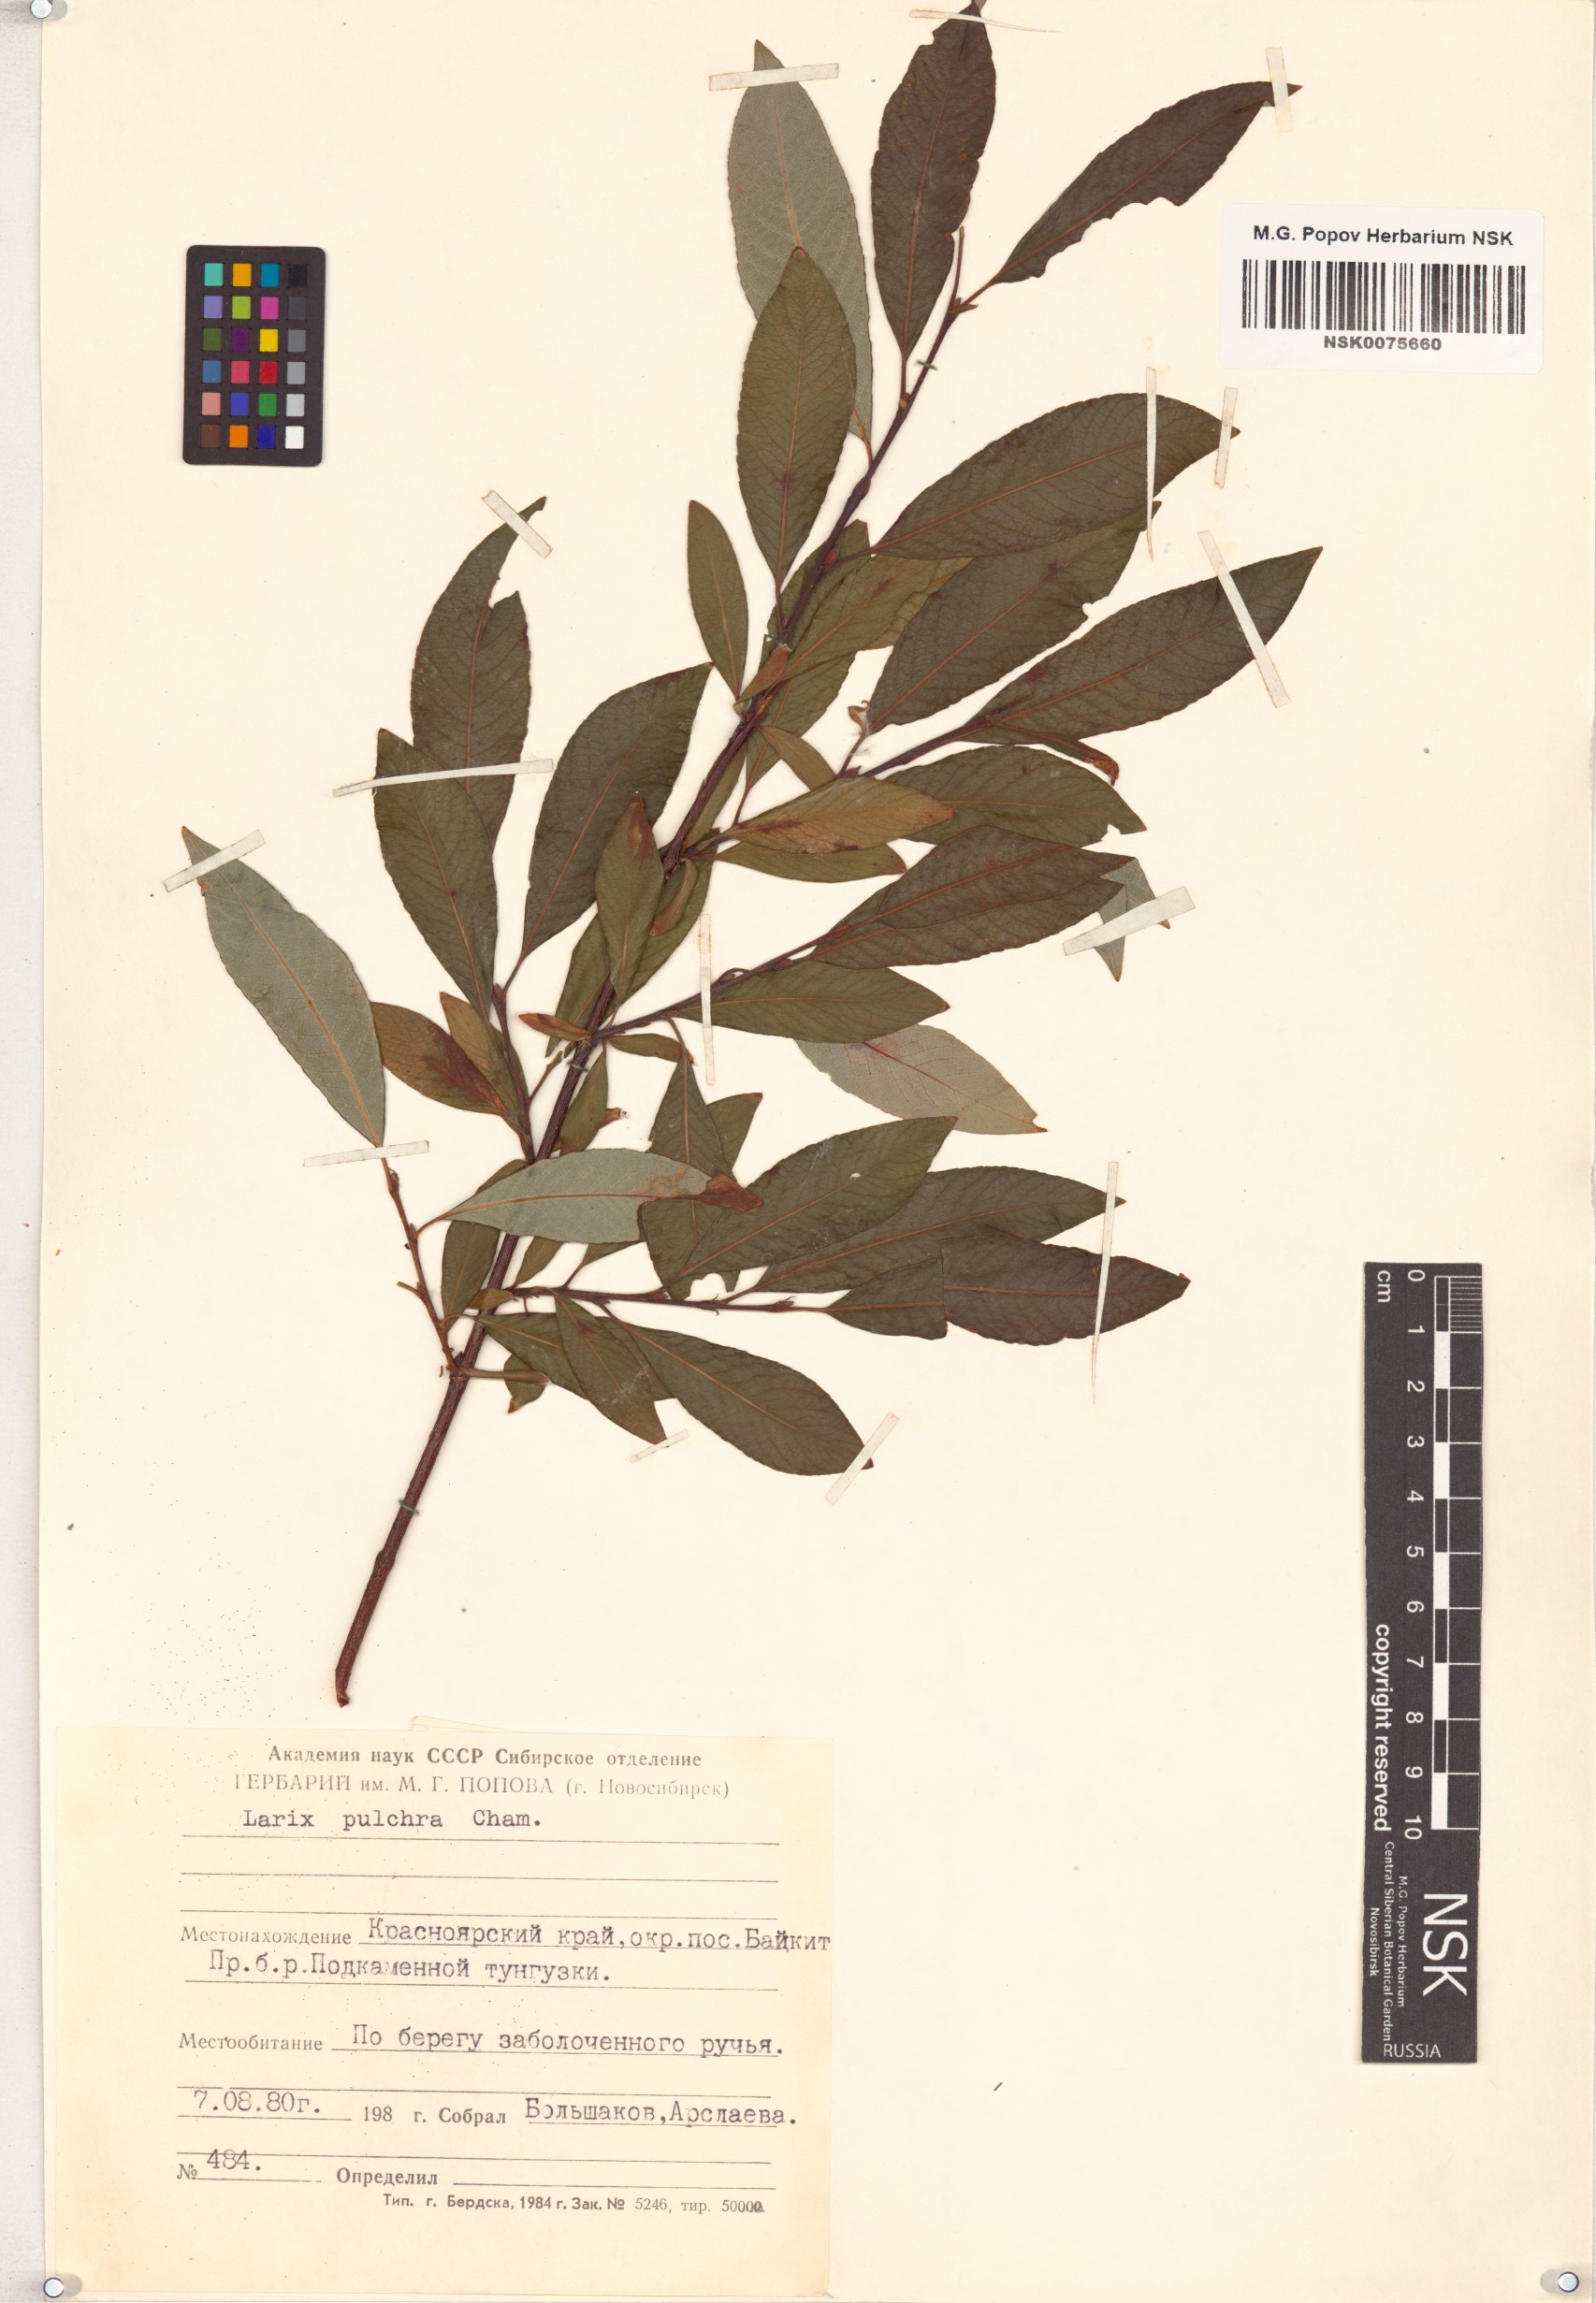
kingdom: Plantae
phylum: Tracheophyta
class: Magnoliopsida
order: Malpighiales
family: Salicaceae
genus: Salix
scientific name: Salix pulchra
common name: Diamond-leaved willow
